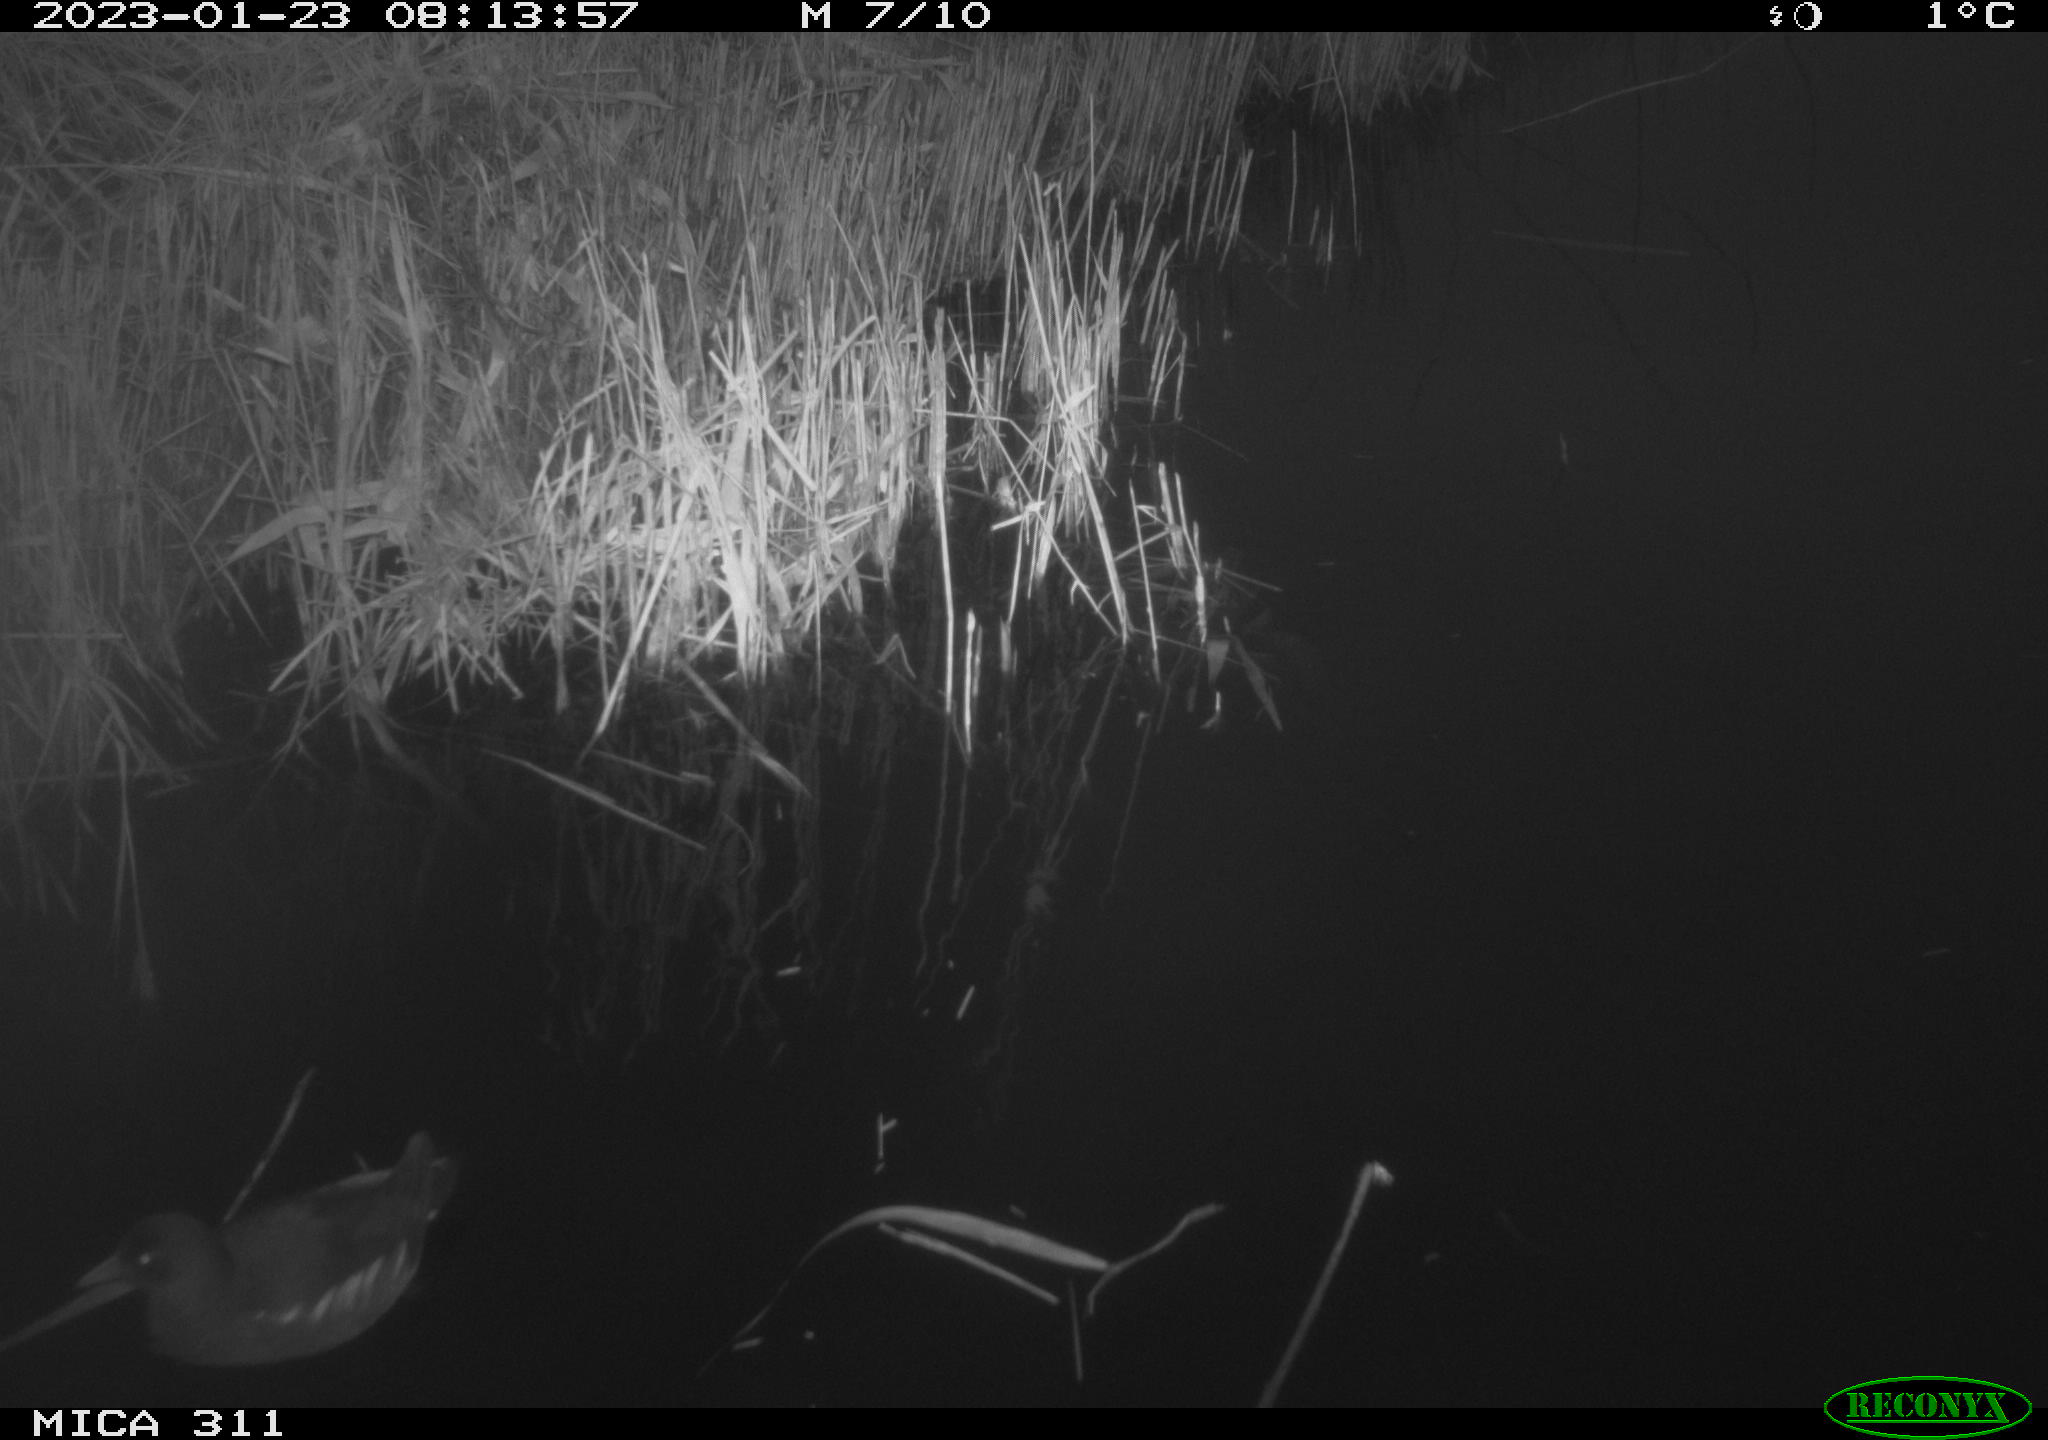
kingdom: Animalia
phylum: Chordata
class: Aves
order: Gruiformes
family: Rallidae
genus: Gallinula
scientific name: Gallinula chloropus
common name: Common moorhen
